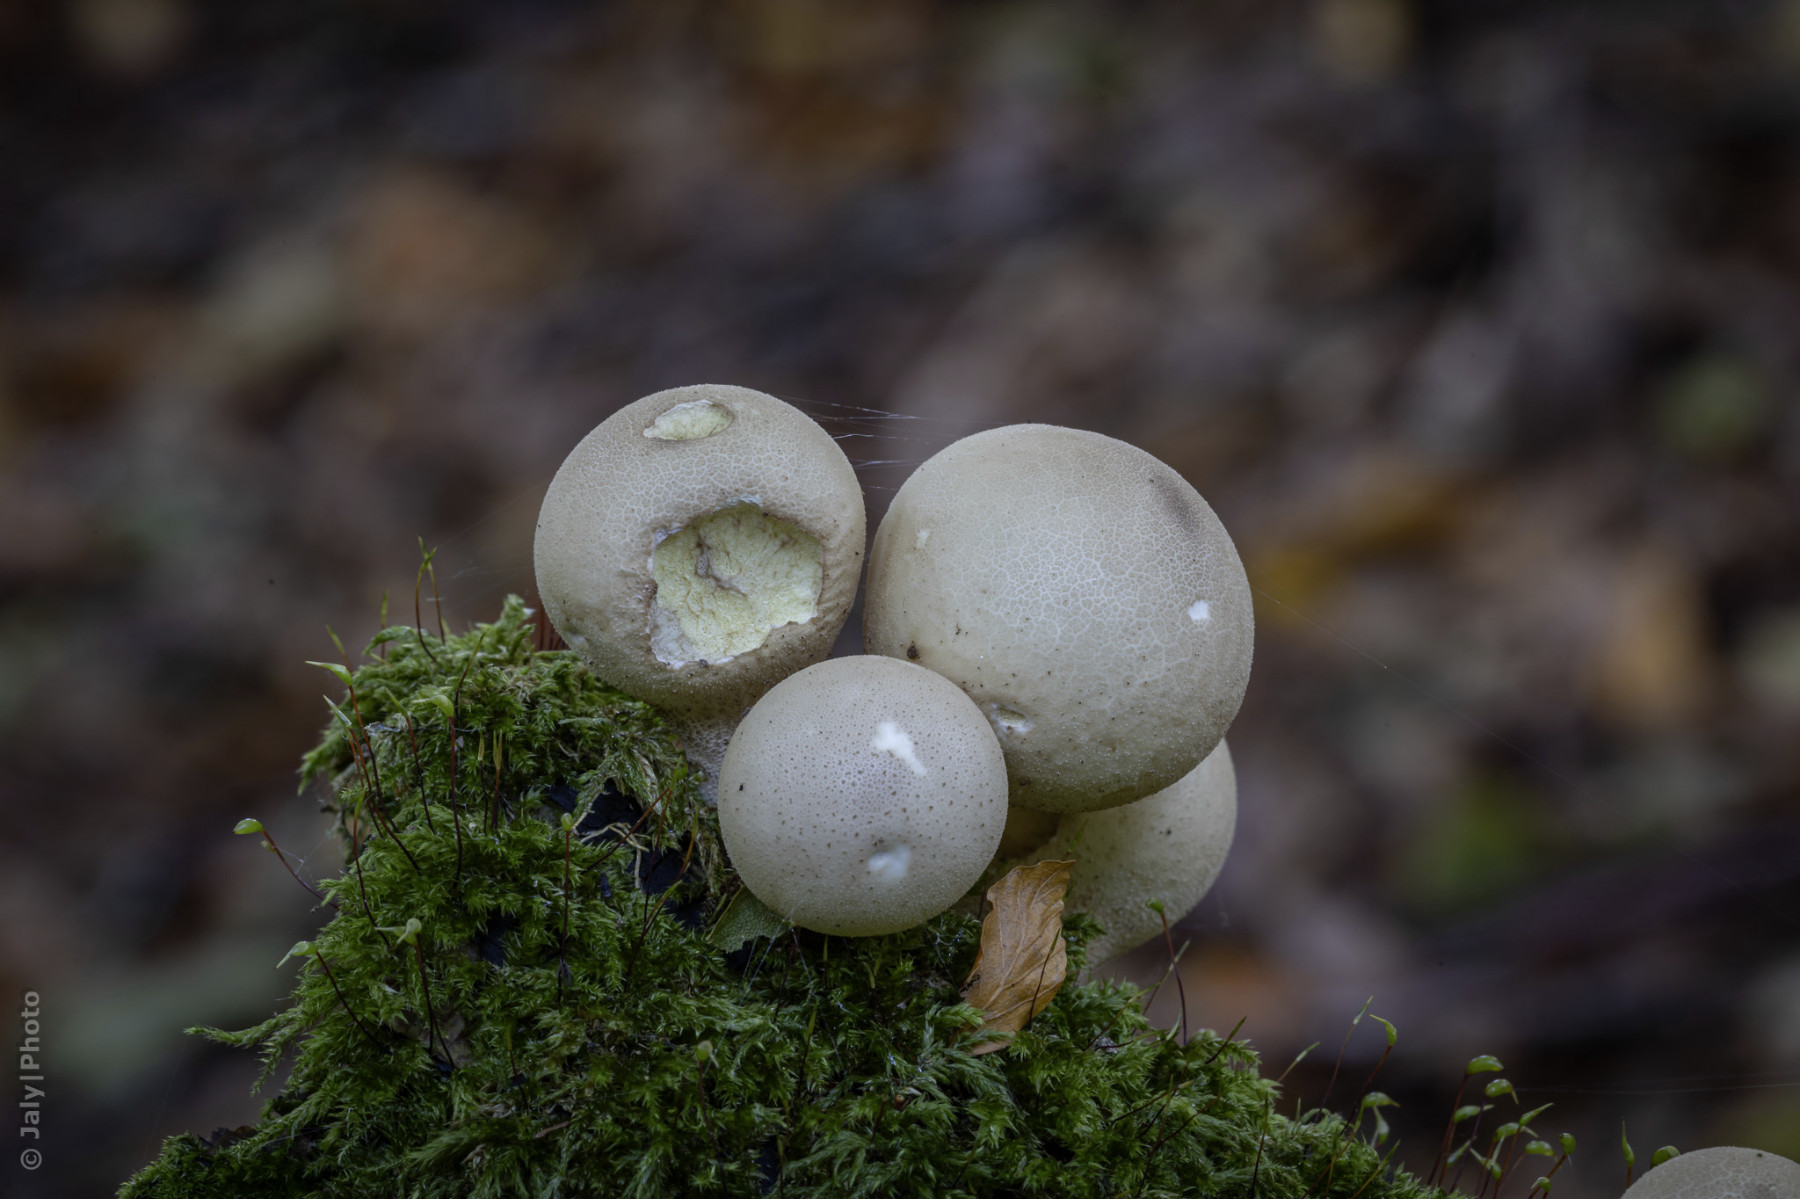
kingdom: Fungi
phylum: Basidiomycota
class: Agaricomycetes
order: Agaricales
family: Lycoperdaceae
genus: Apioperdon
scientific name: Apioperdon pyriforme
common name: pære-støvbold
